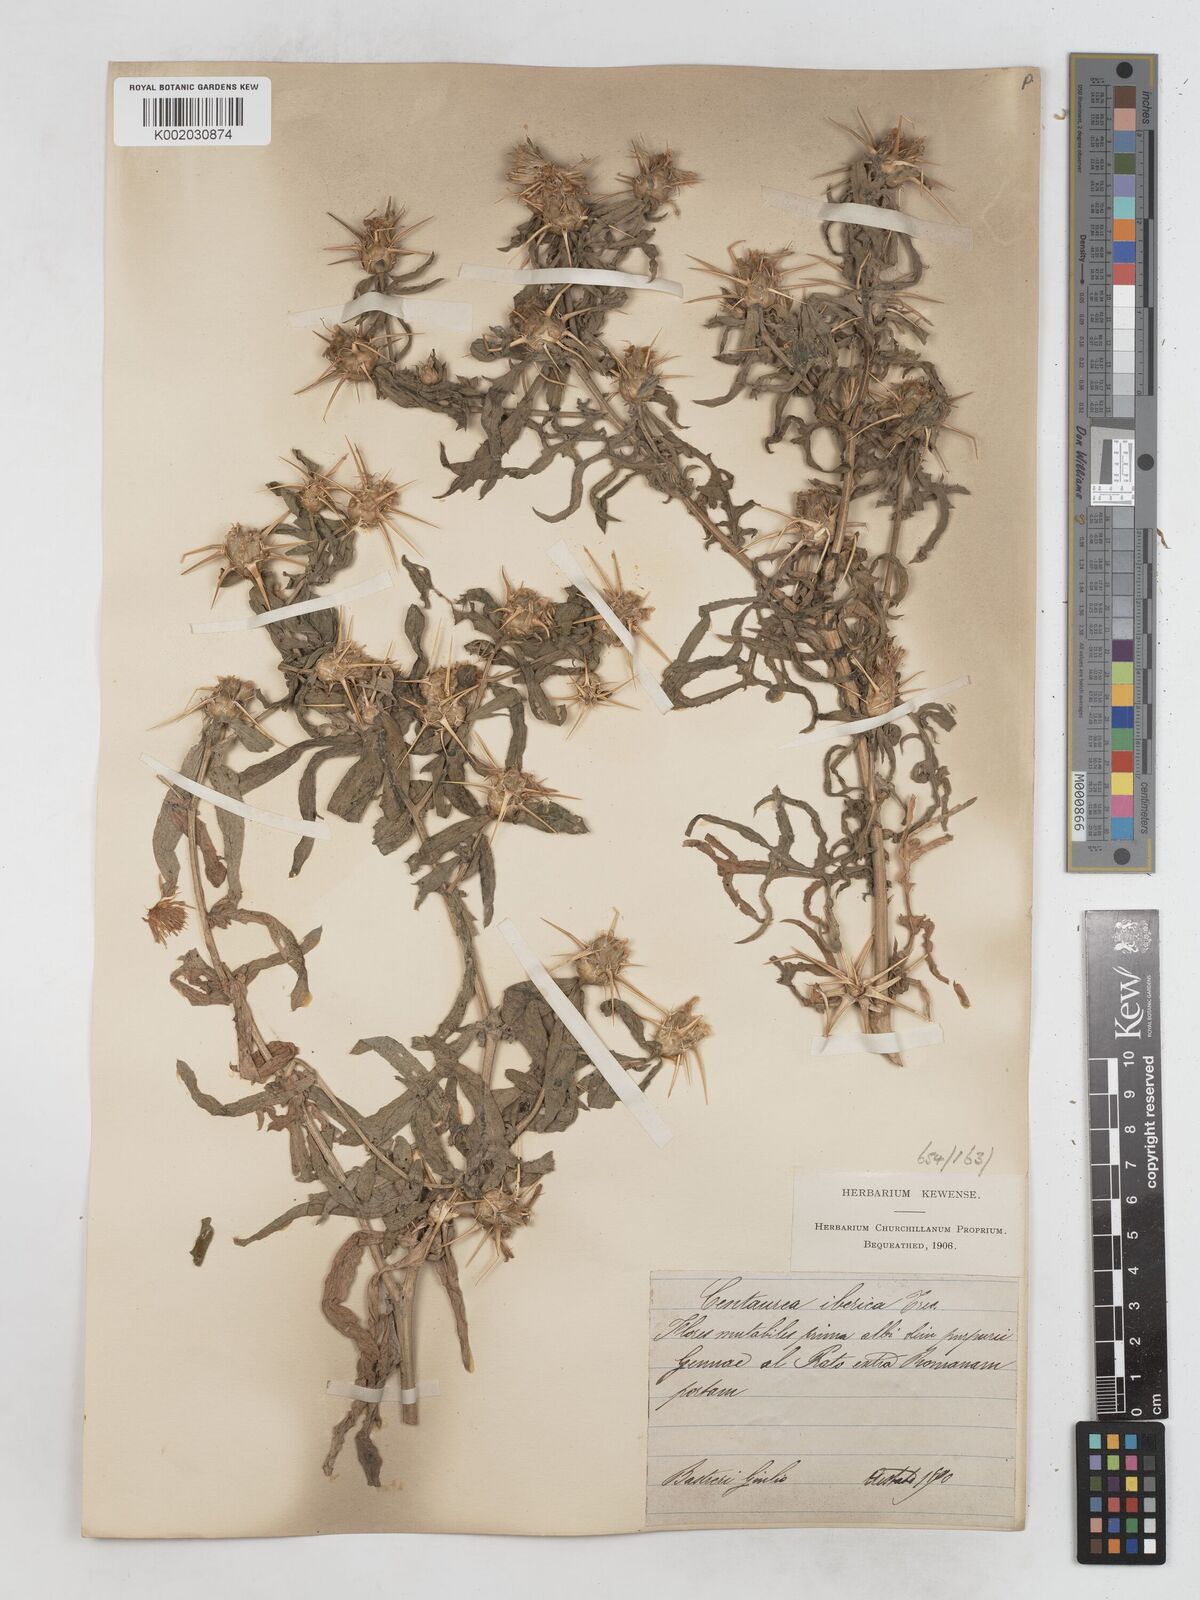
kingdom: Plantae
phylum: Tracheophyta
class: Magnoliopsida
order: Asterales
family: Asteraceae
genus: Centaurea
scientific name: Centaurea iberica
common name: Iberian knapweed
